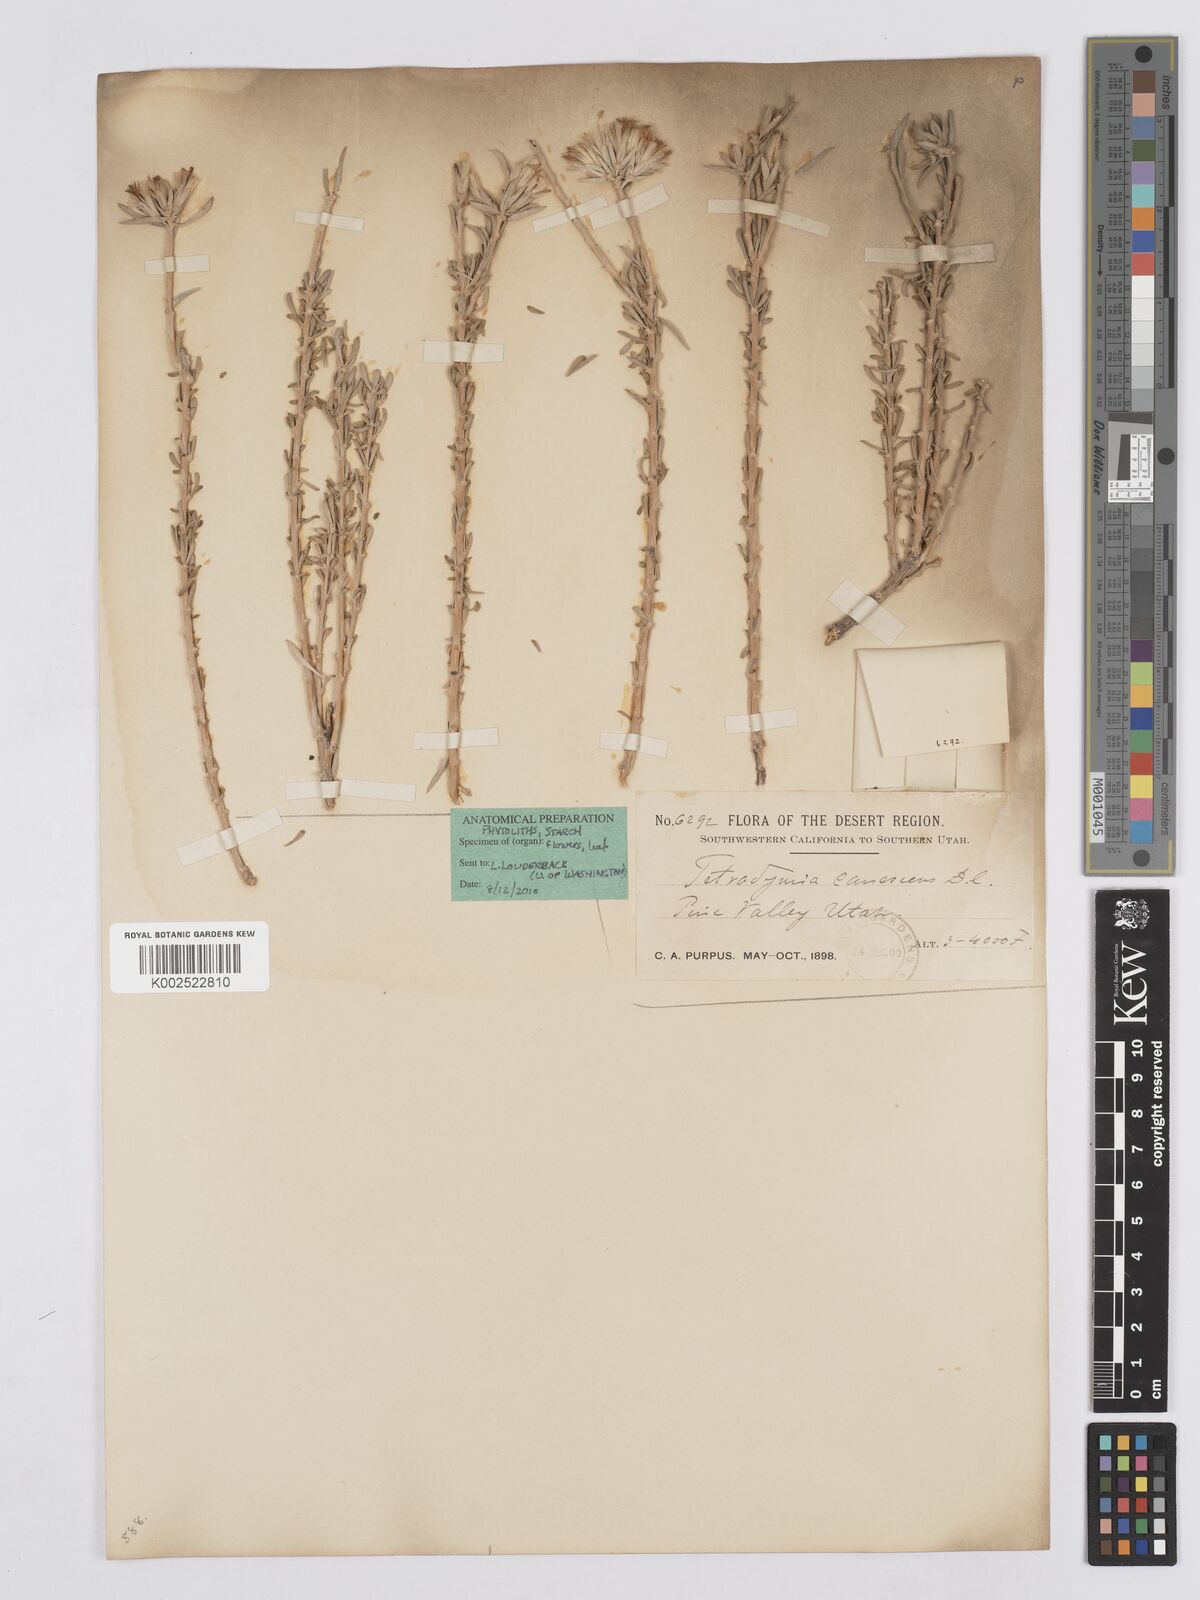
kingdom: Plantae
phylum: Tracheophyta
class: Magnoliopsida
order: Asterales
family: Asteraceae
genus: Tetradymia
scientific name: Tetradymia canescens
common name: Spineless horsebrush
